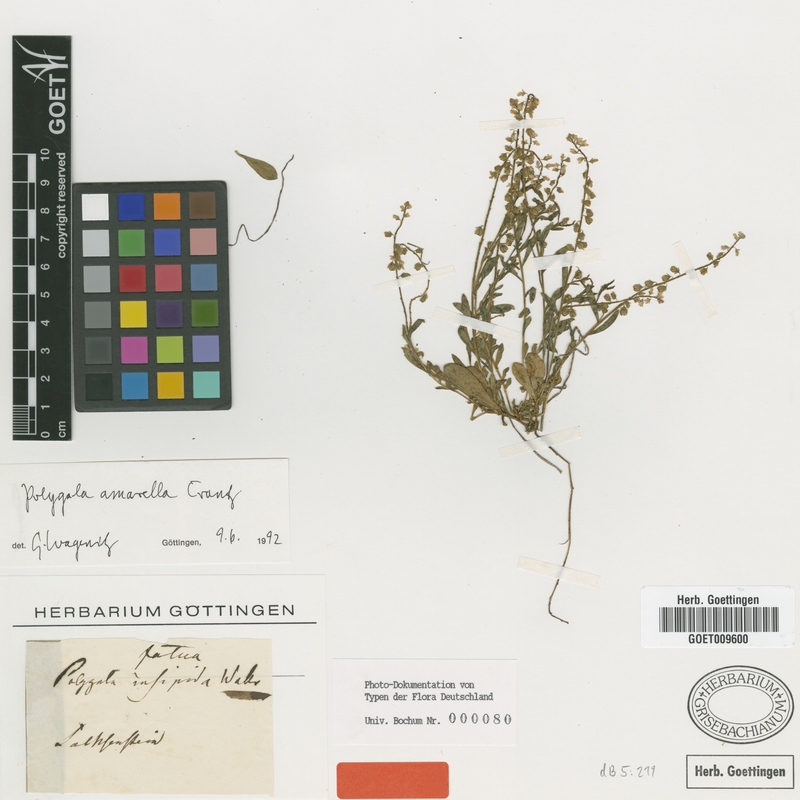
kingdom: Plantae
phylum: Tracheophyta
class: Magnoliopsida
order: Fabales
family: Polygalaceae
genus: Polygala
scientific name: Polygala amarella
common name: Dwarf milkwort
